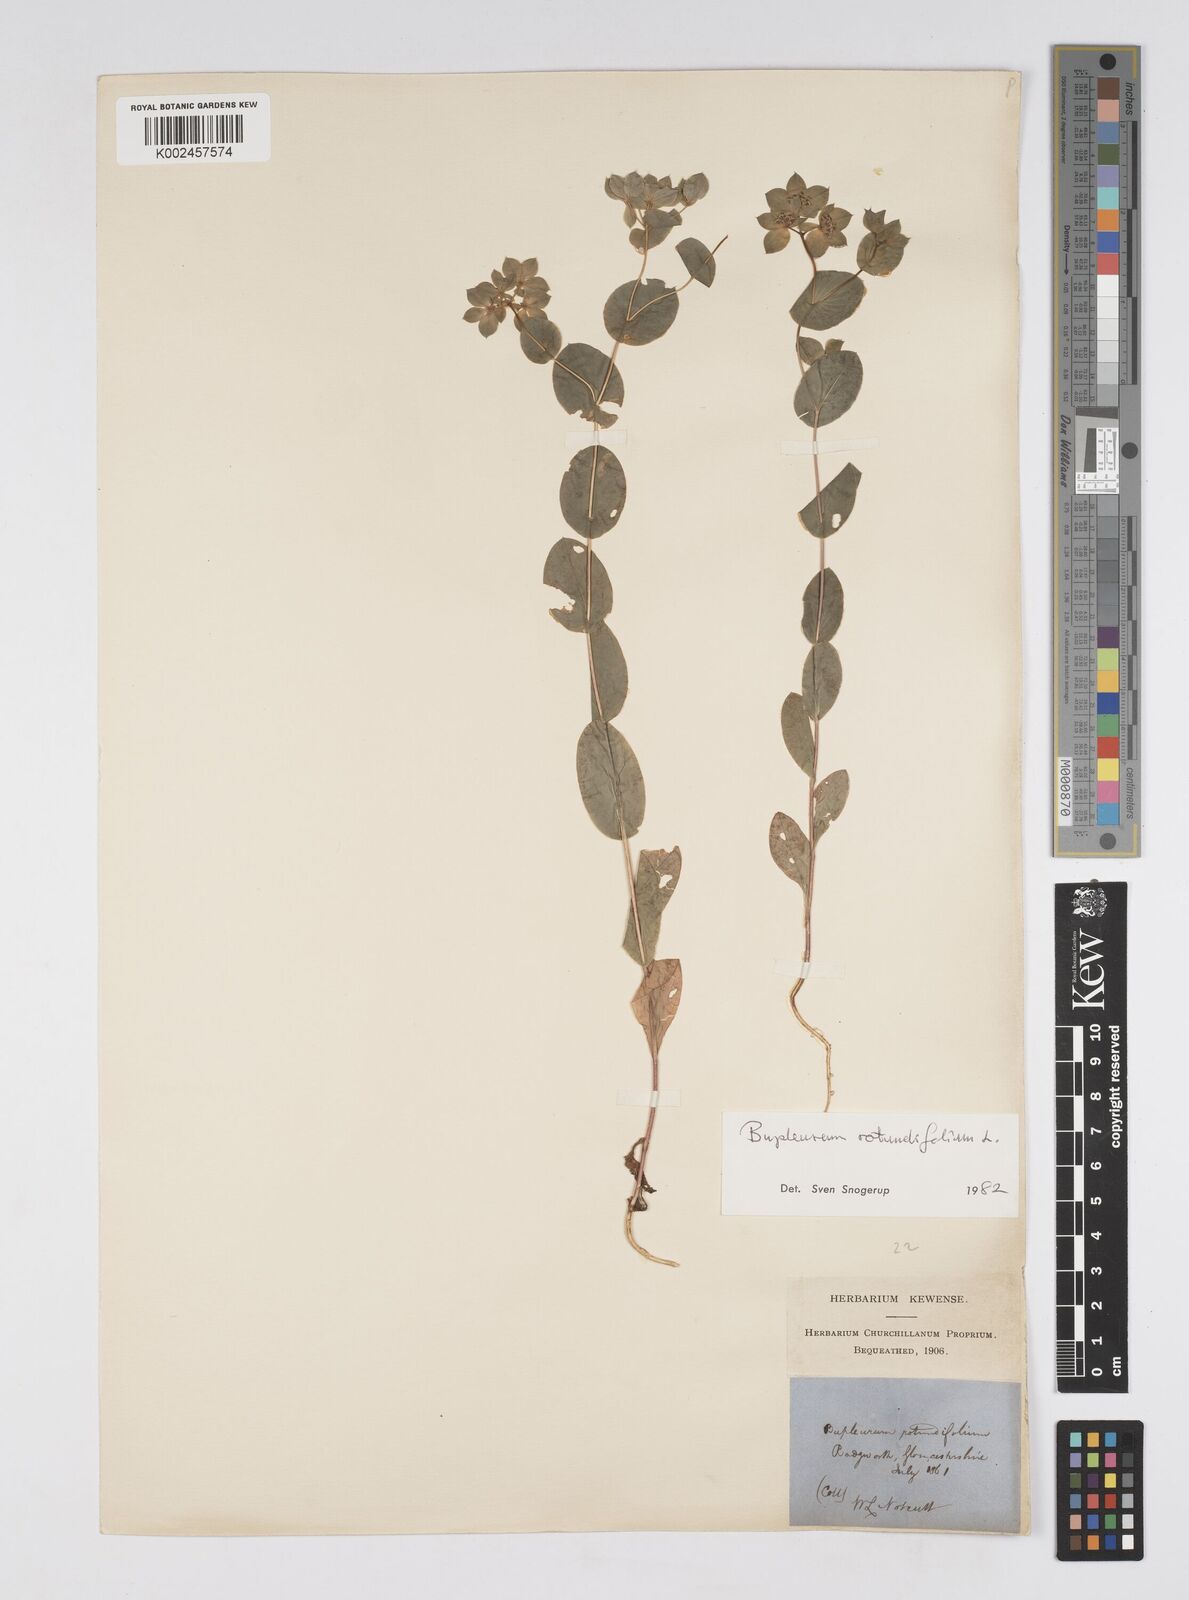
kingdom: Plantae
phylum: Tracheophyta
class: Magnoliopsida
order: Apiales
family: Apiaceae
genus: Bupleurum
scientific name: Bupleurum rotundifolium
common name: Thorow-wax
